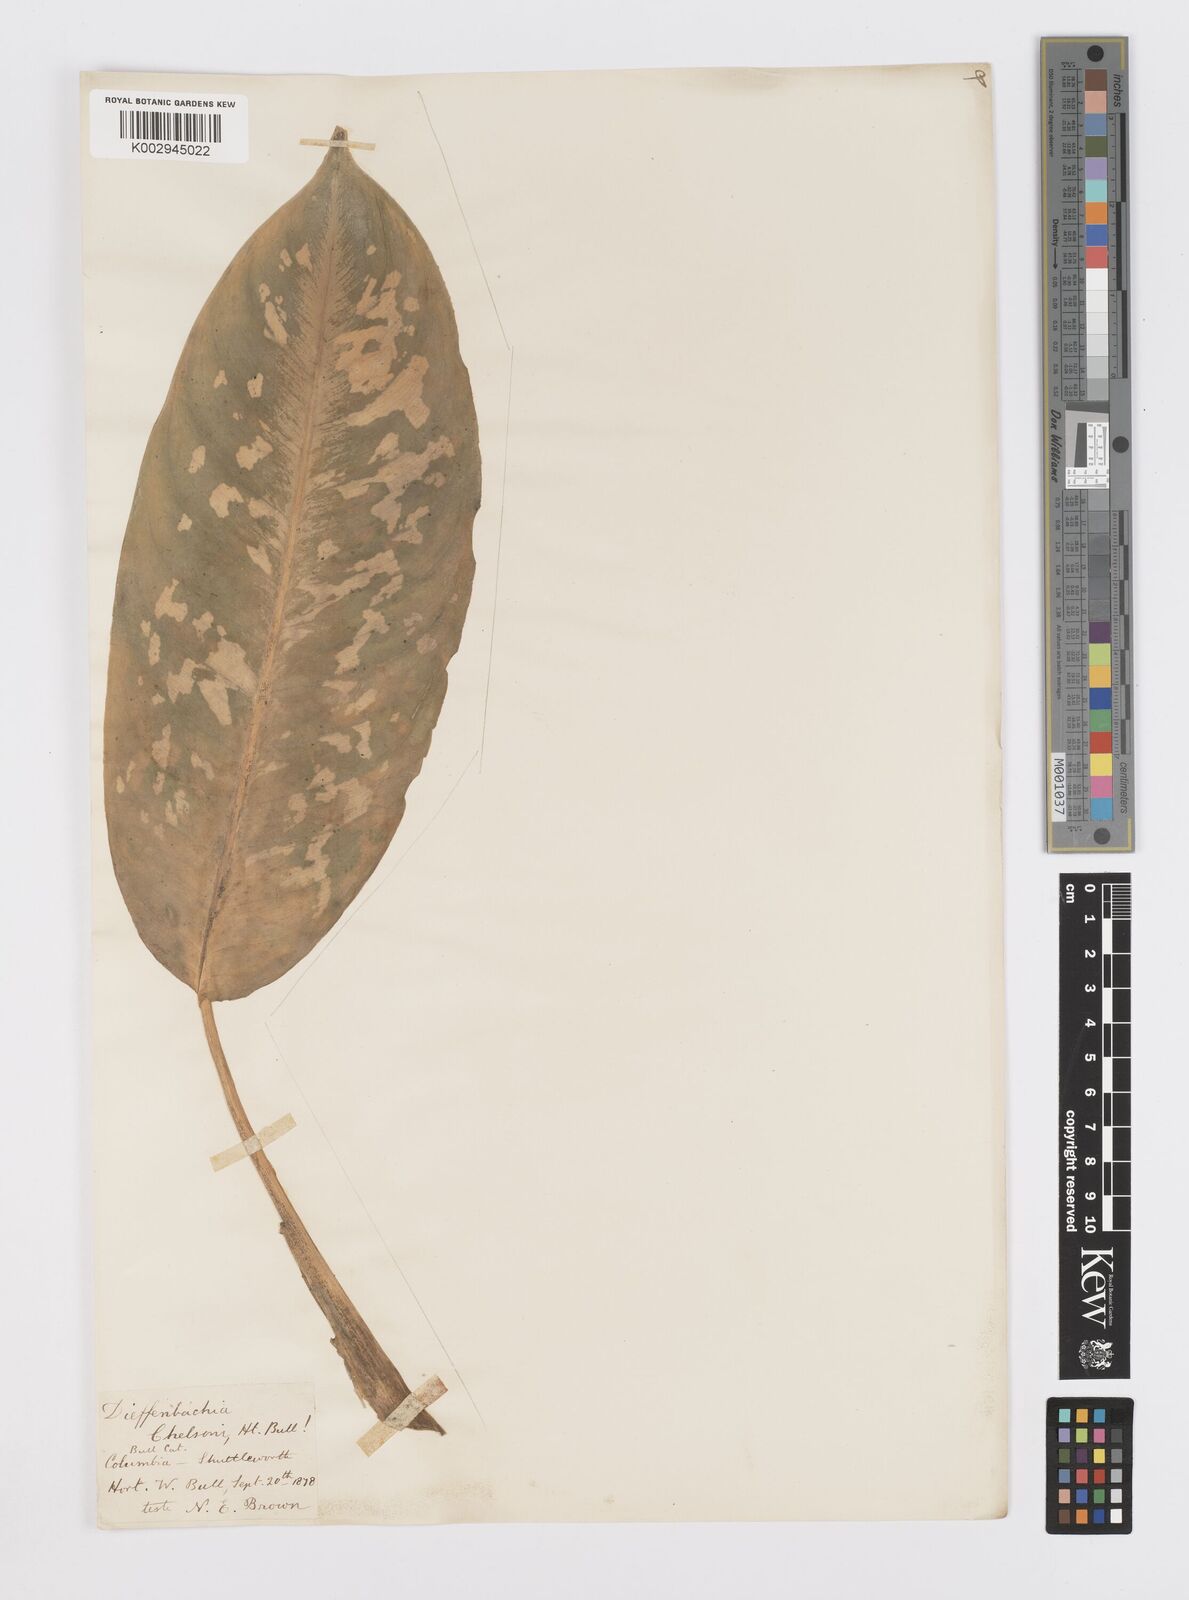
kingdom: Plantae
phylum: Tracheophyta
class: Liliopsida
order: Alismatales
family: Araceae
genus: Dieffenbachia
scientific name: Dieffenbachia seguine
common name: Dumbcane
